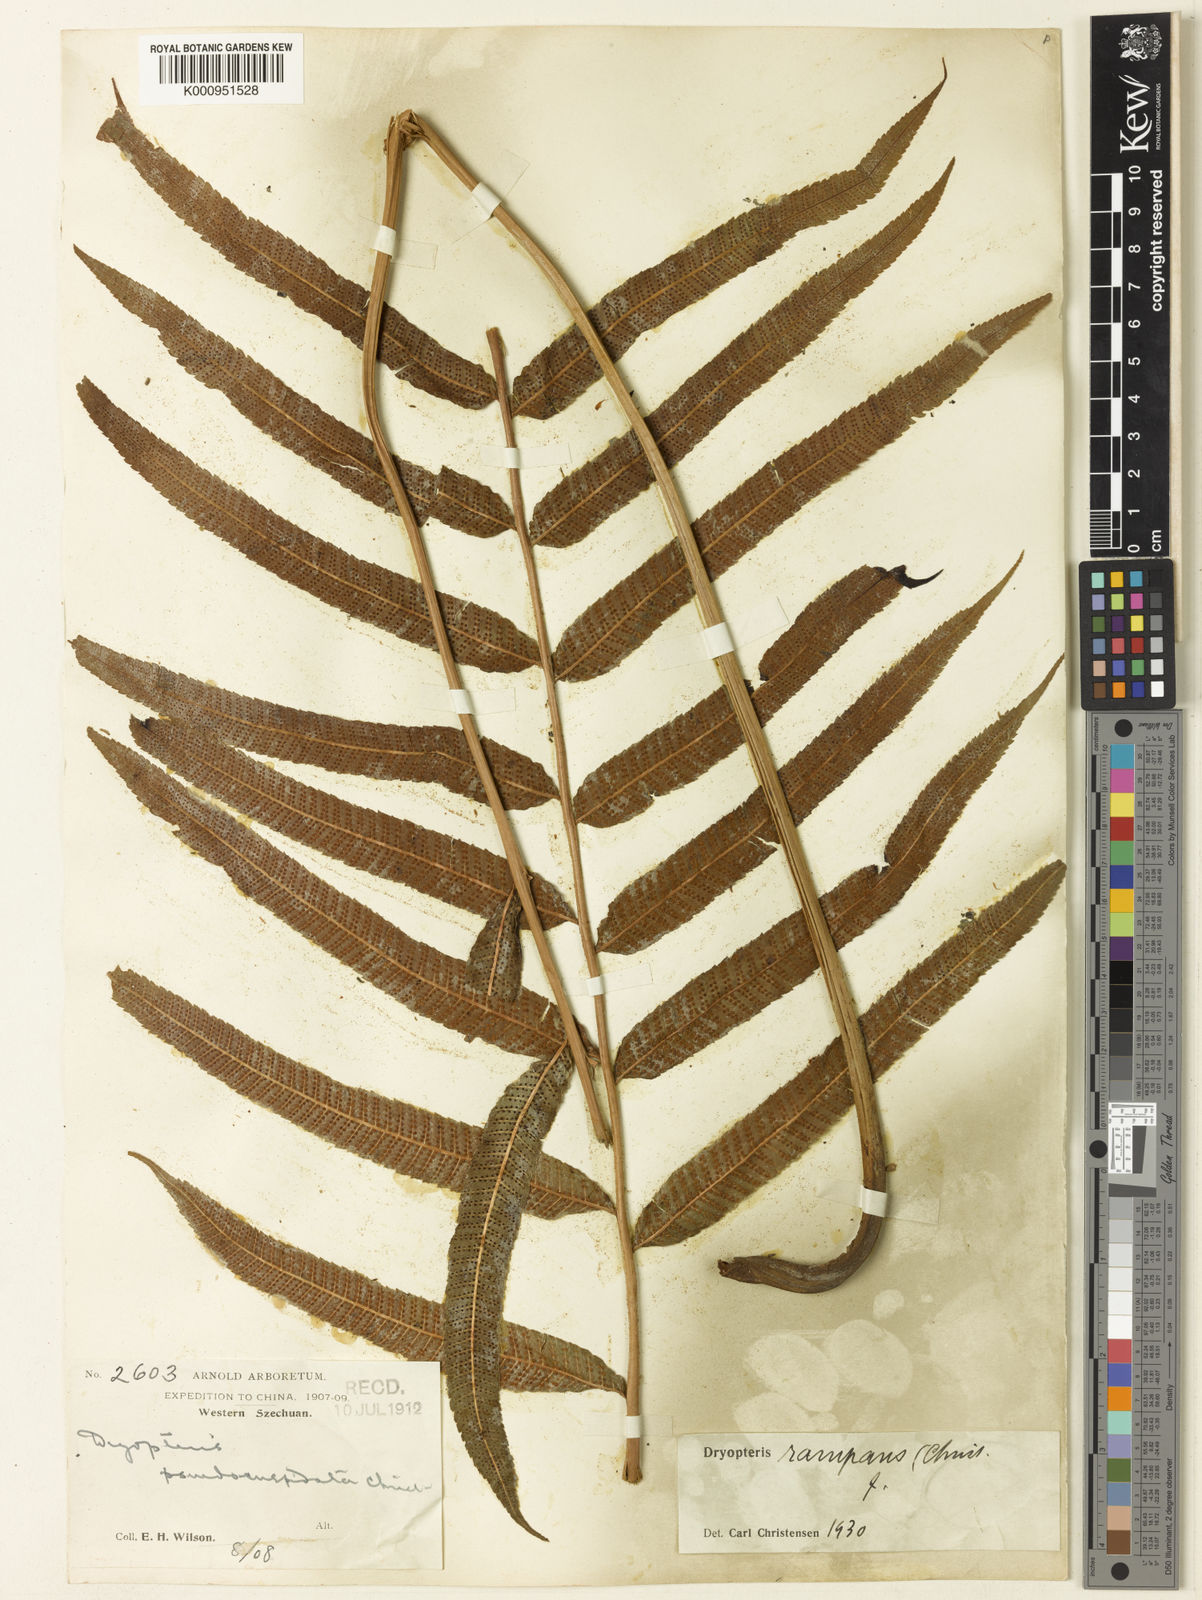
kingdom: Plantae
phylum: Tracheophyta
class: Polypodiopsida
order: Polypodiales
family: Thelypteridaceae
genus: Menisciopsis
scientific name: Menisciopsis penangiana
